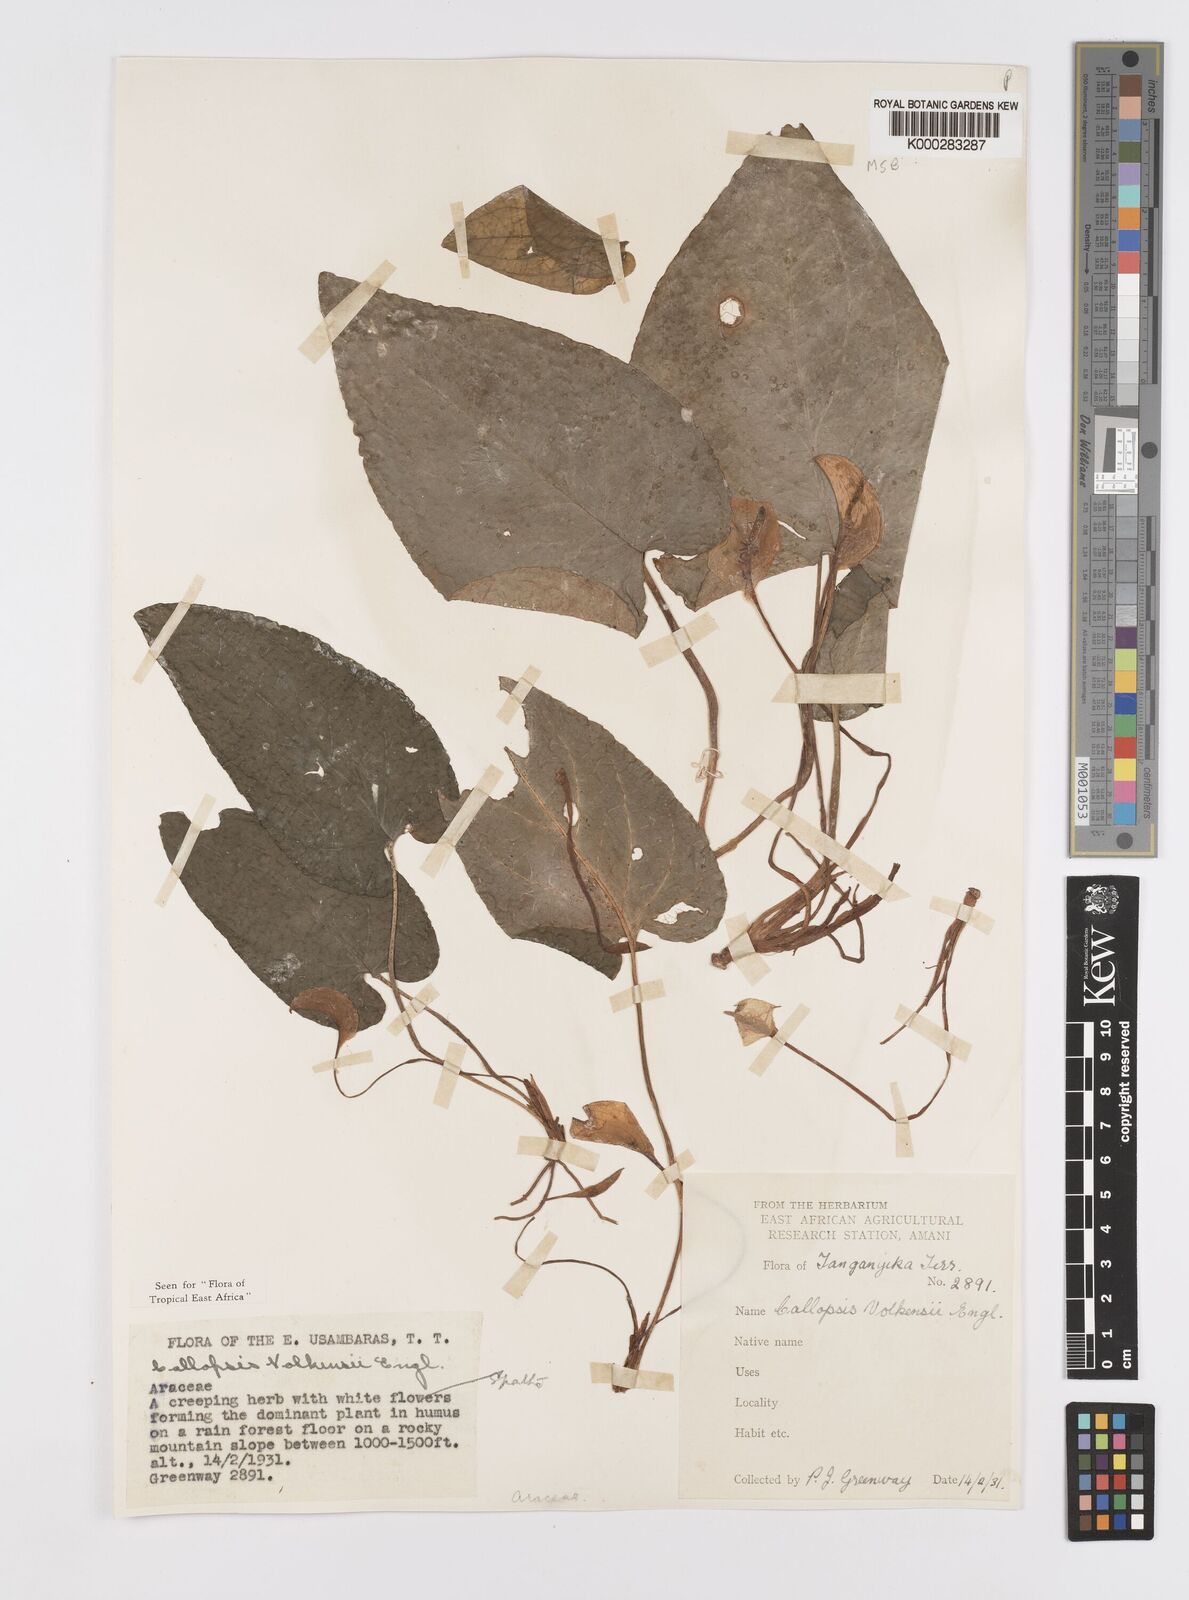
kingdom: Plantae
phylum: Tracheophyta
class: Liliopsida
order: Alismatales
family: Araceae
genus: Callopsis
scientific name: Callopsis volkensii
